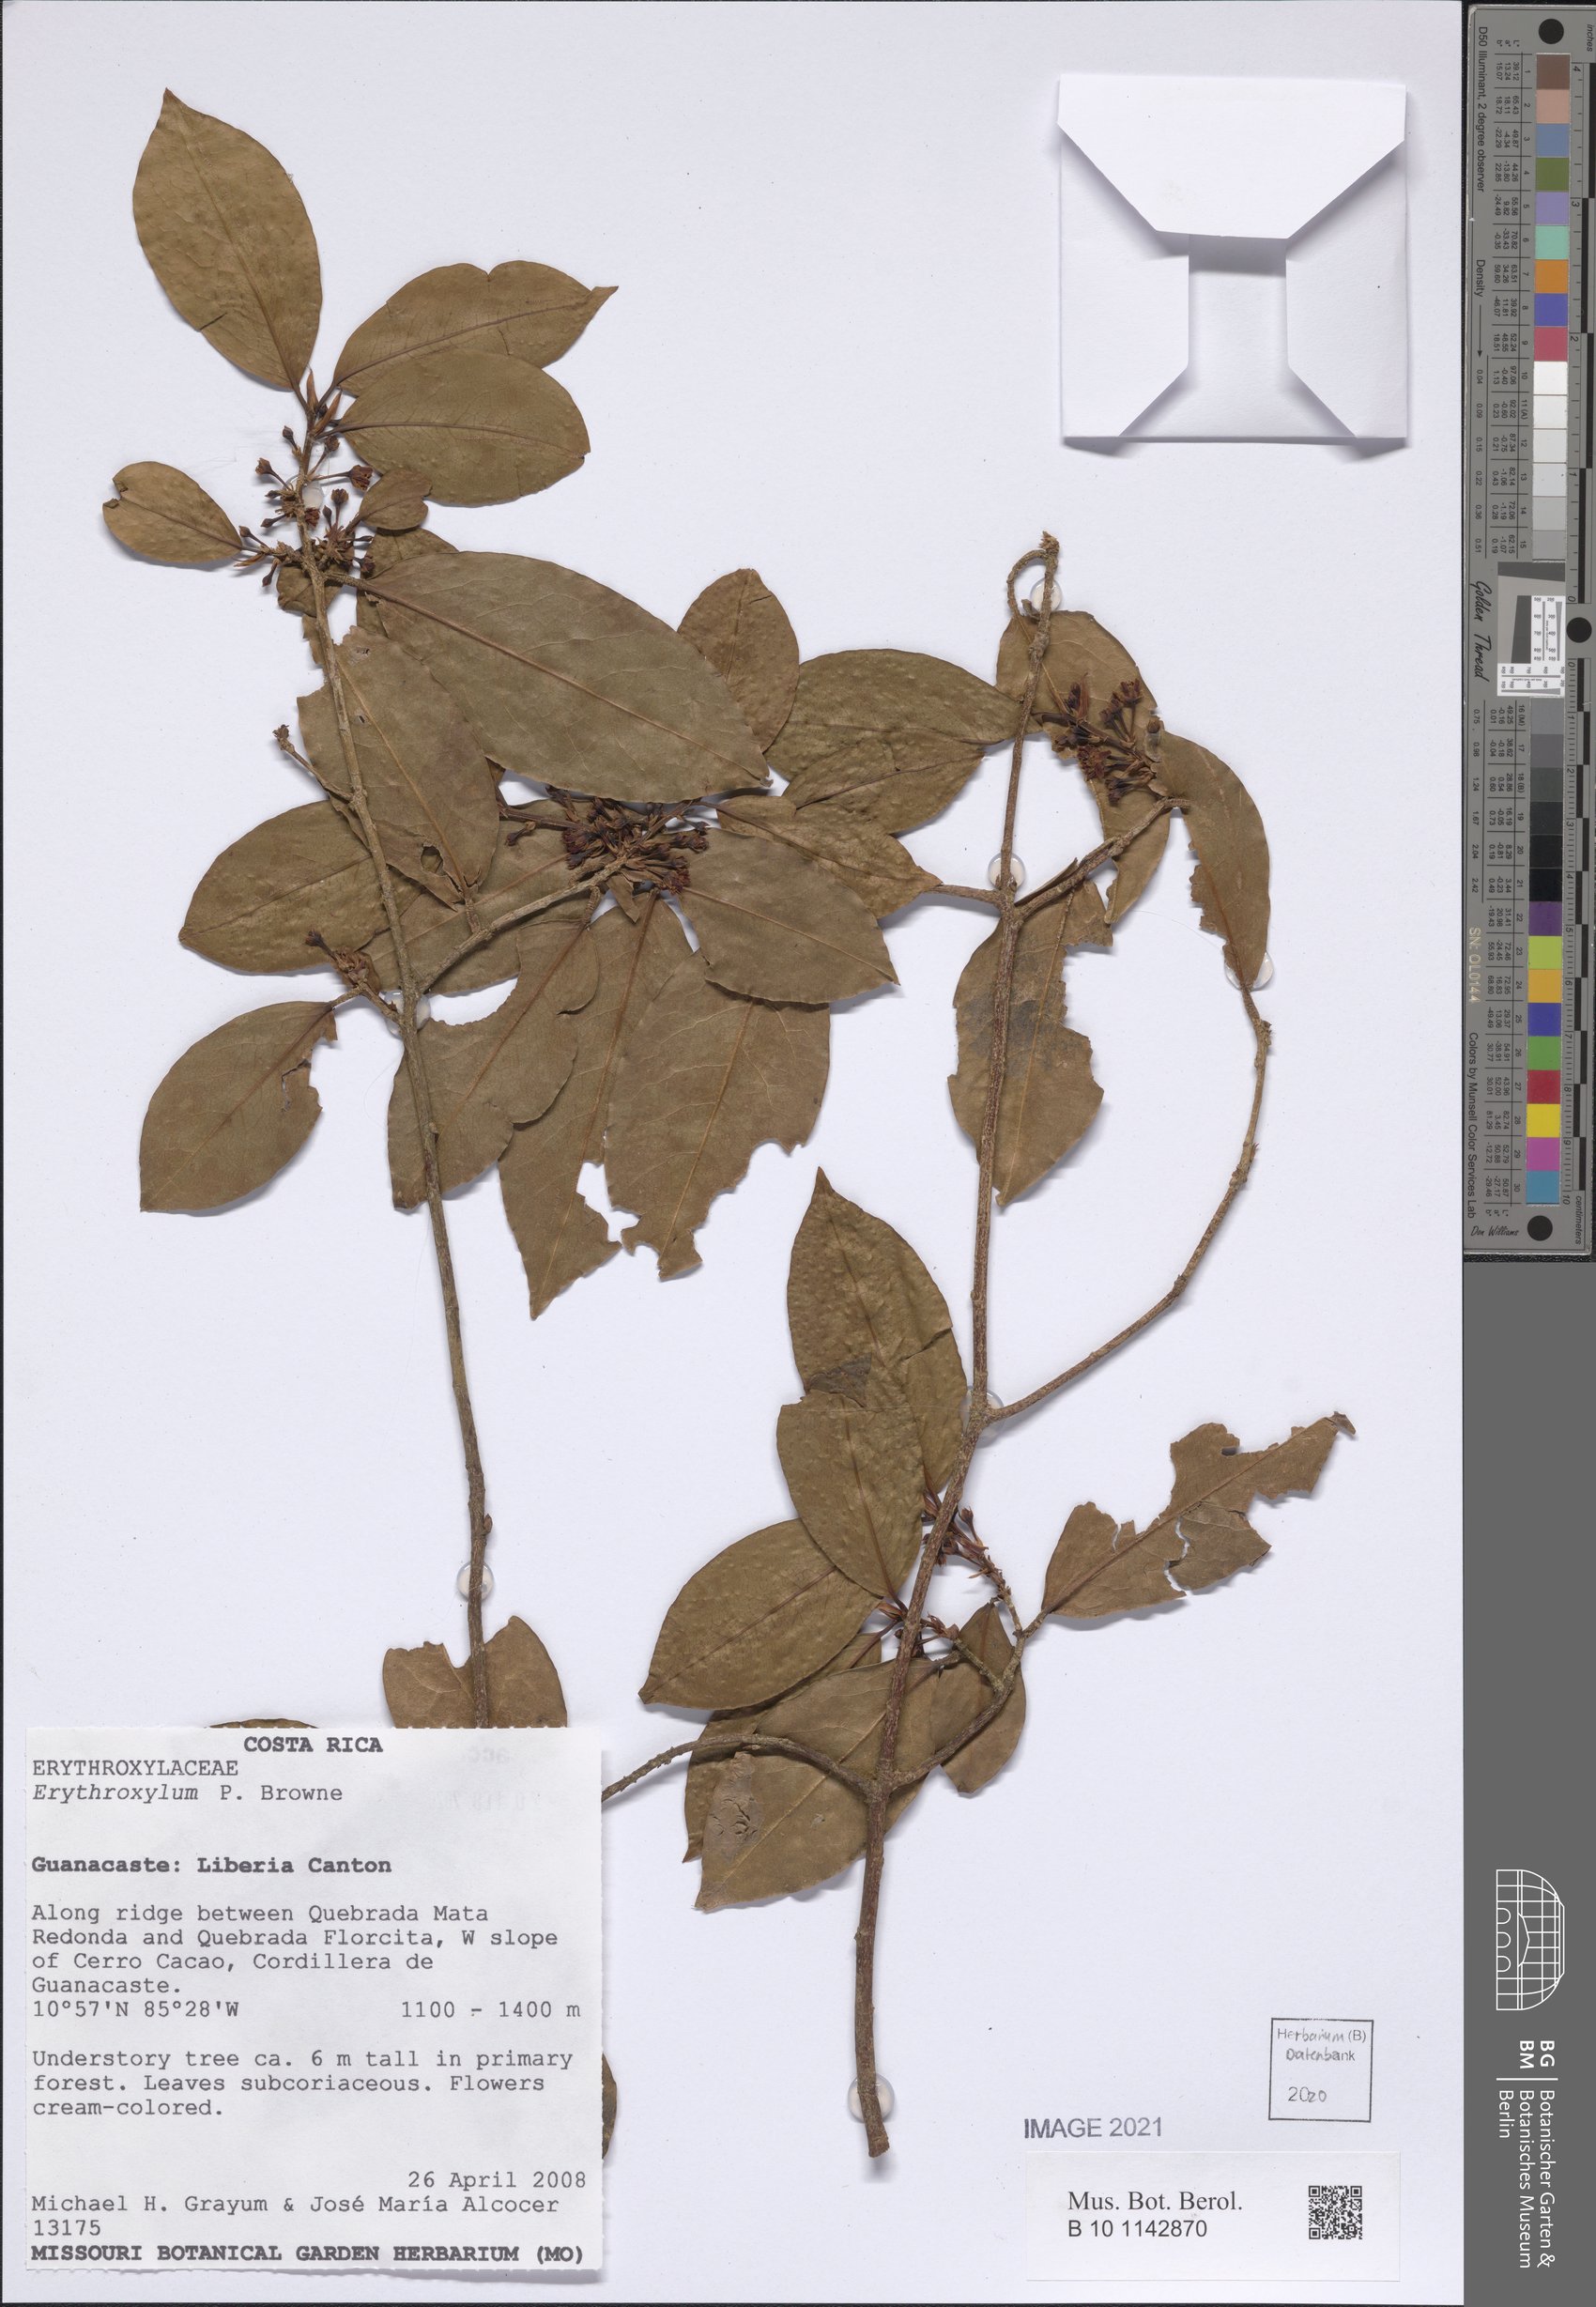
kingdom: Plantae
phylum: Tracheophyta
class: Magnoliopsida
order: Malpighiales
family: Erythroxylaceae
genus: Erythroxylum
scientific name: Erythroxylum
